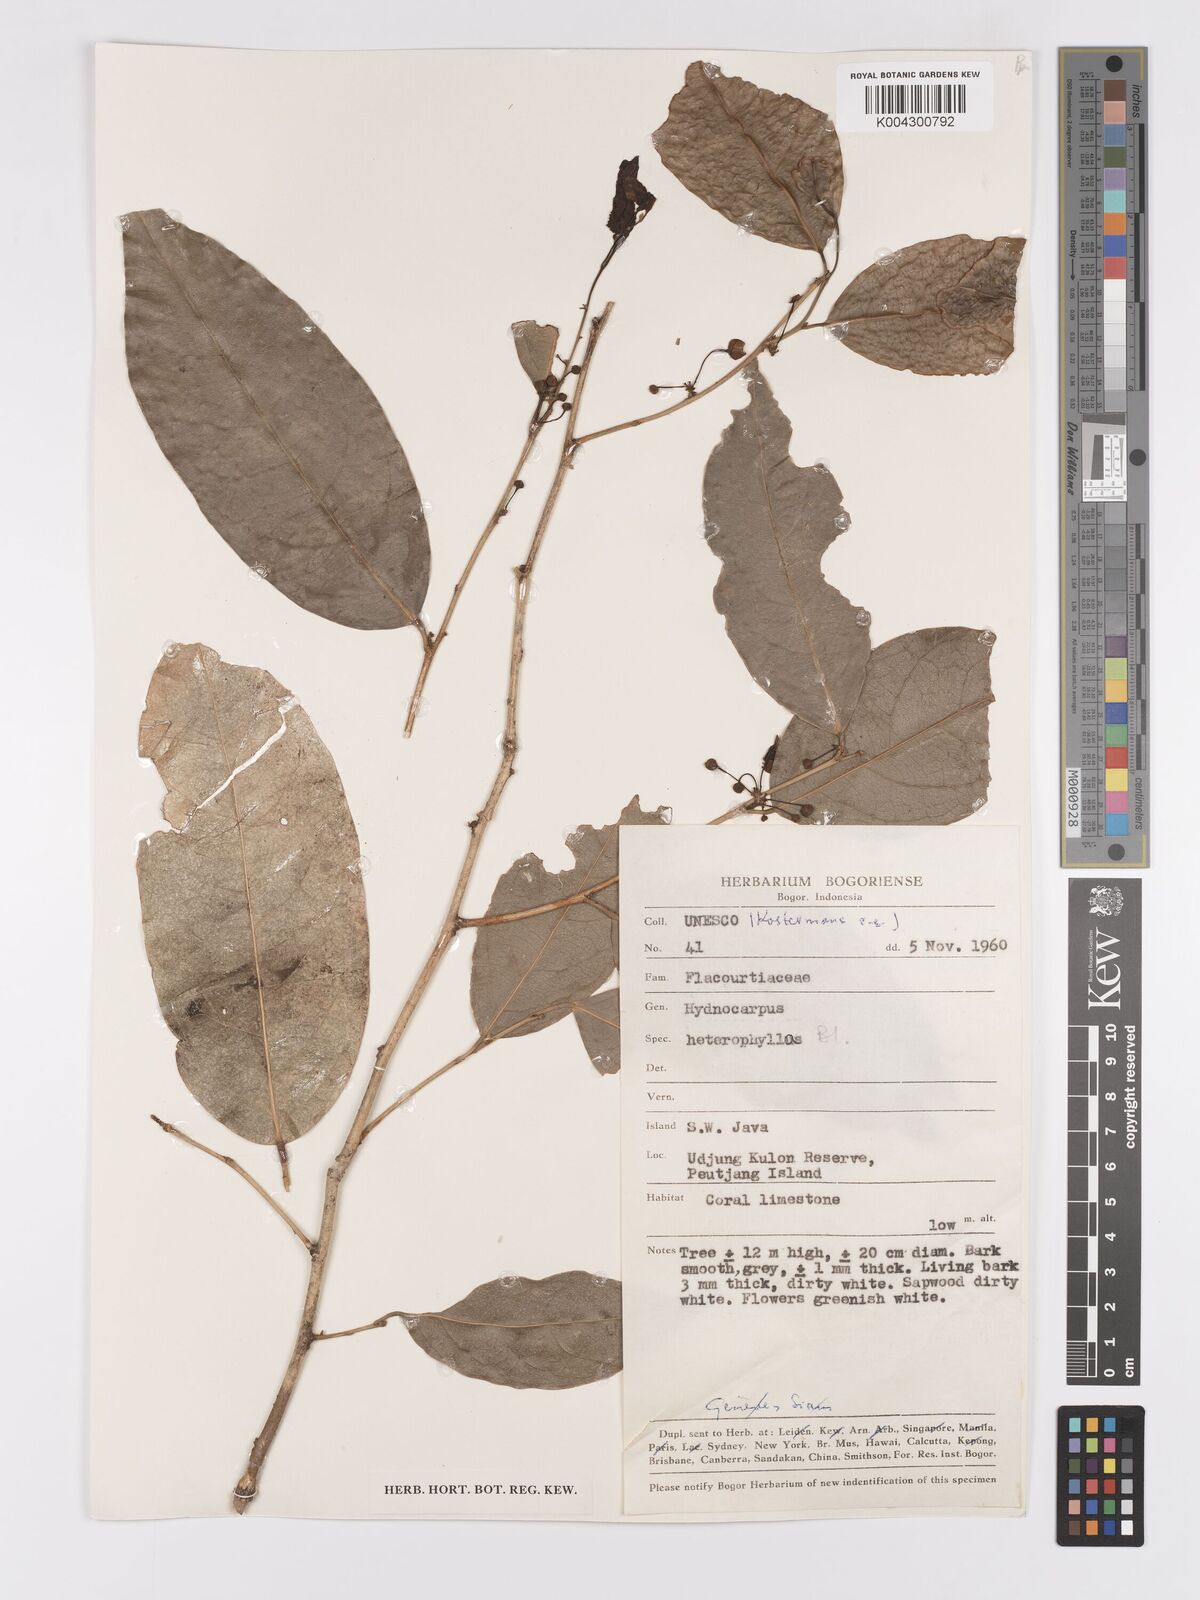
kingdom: Plantae
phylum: Tracheophyta
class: Magnoliopsida
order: Malpighiales
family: Achariaceae
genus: Hydnocarpus
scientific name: Hydnocarpus heterophyllus
